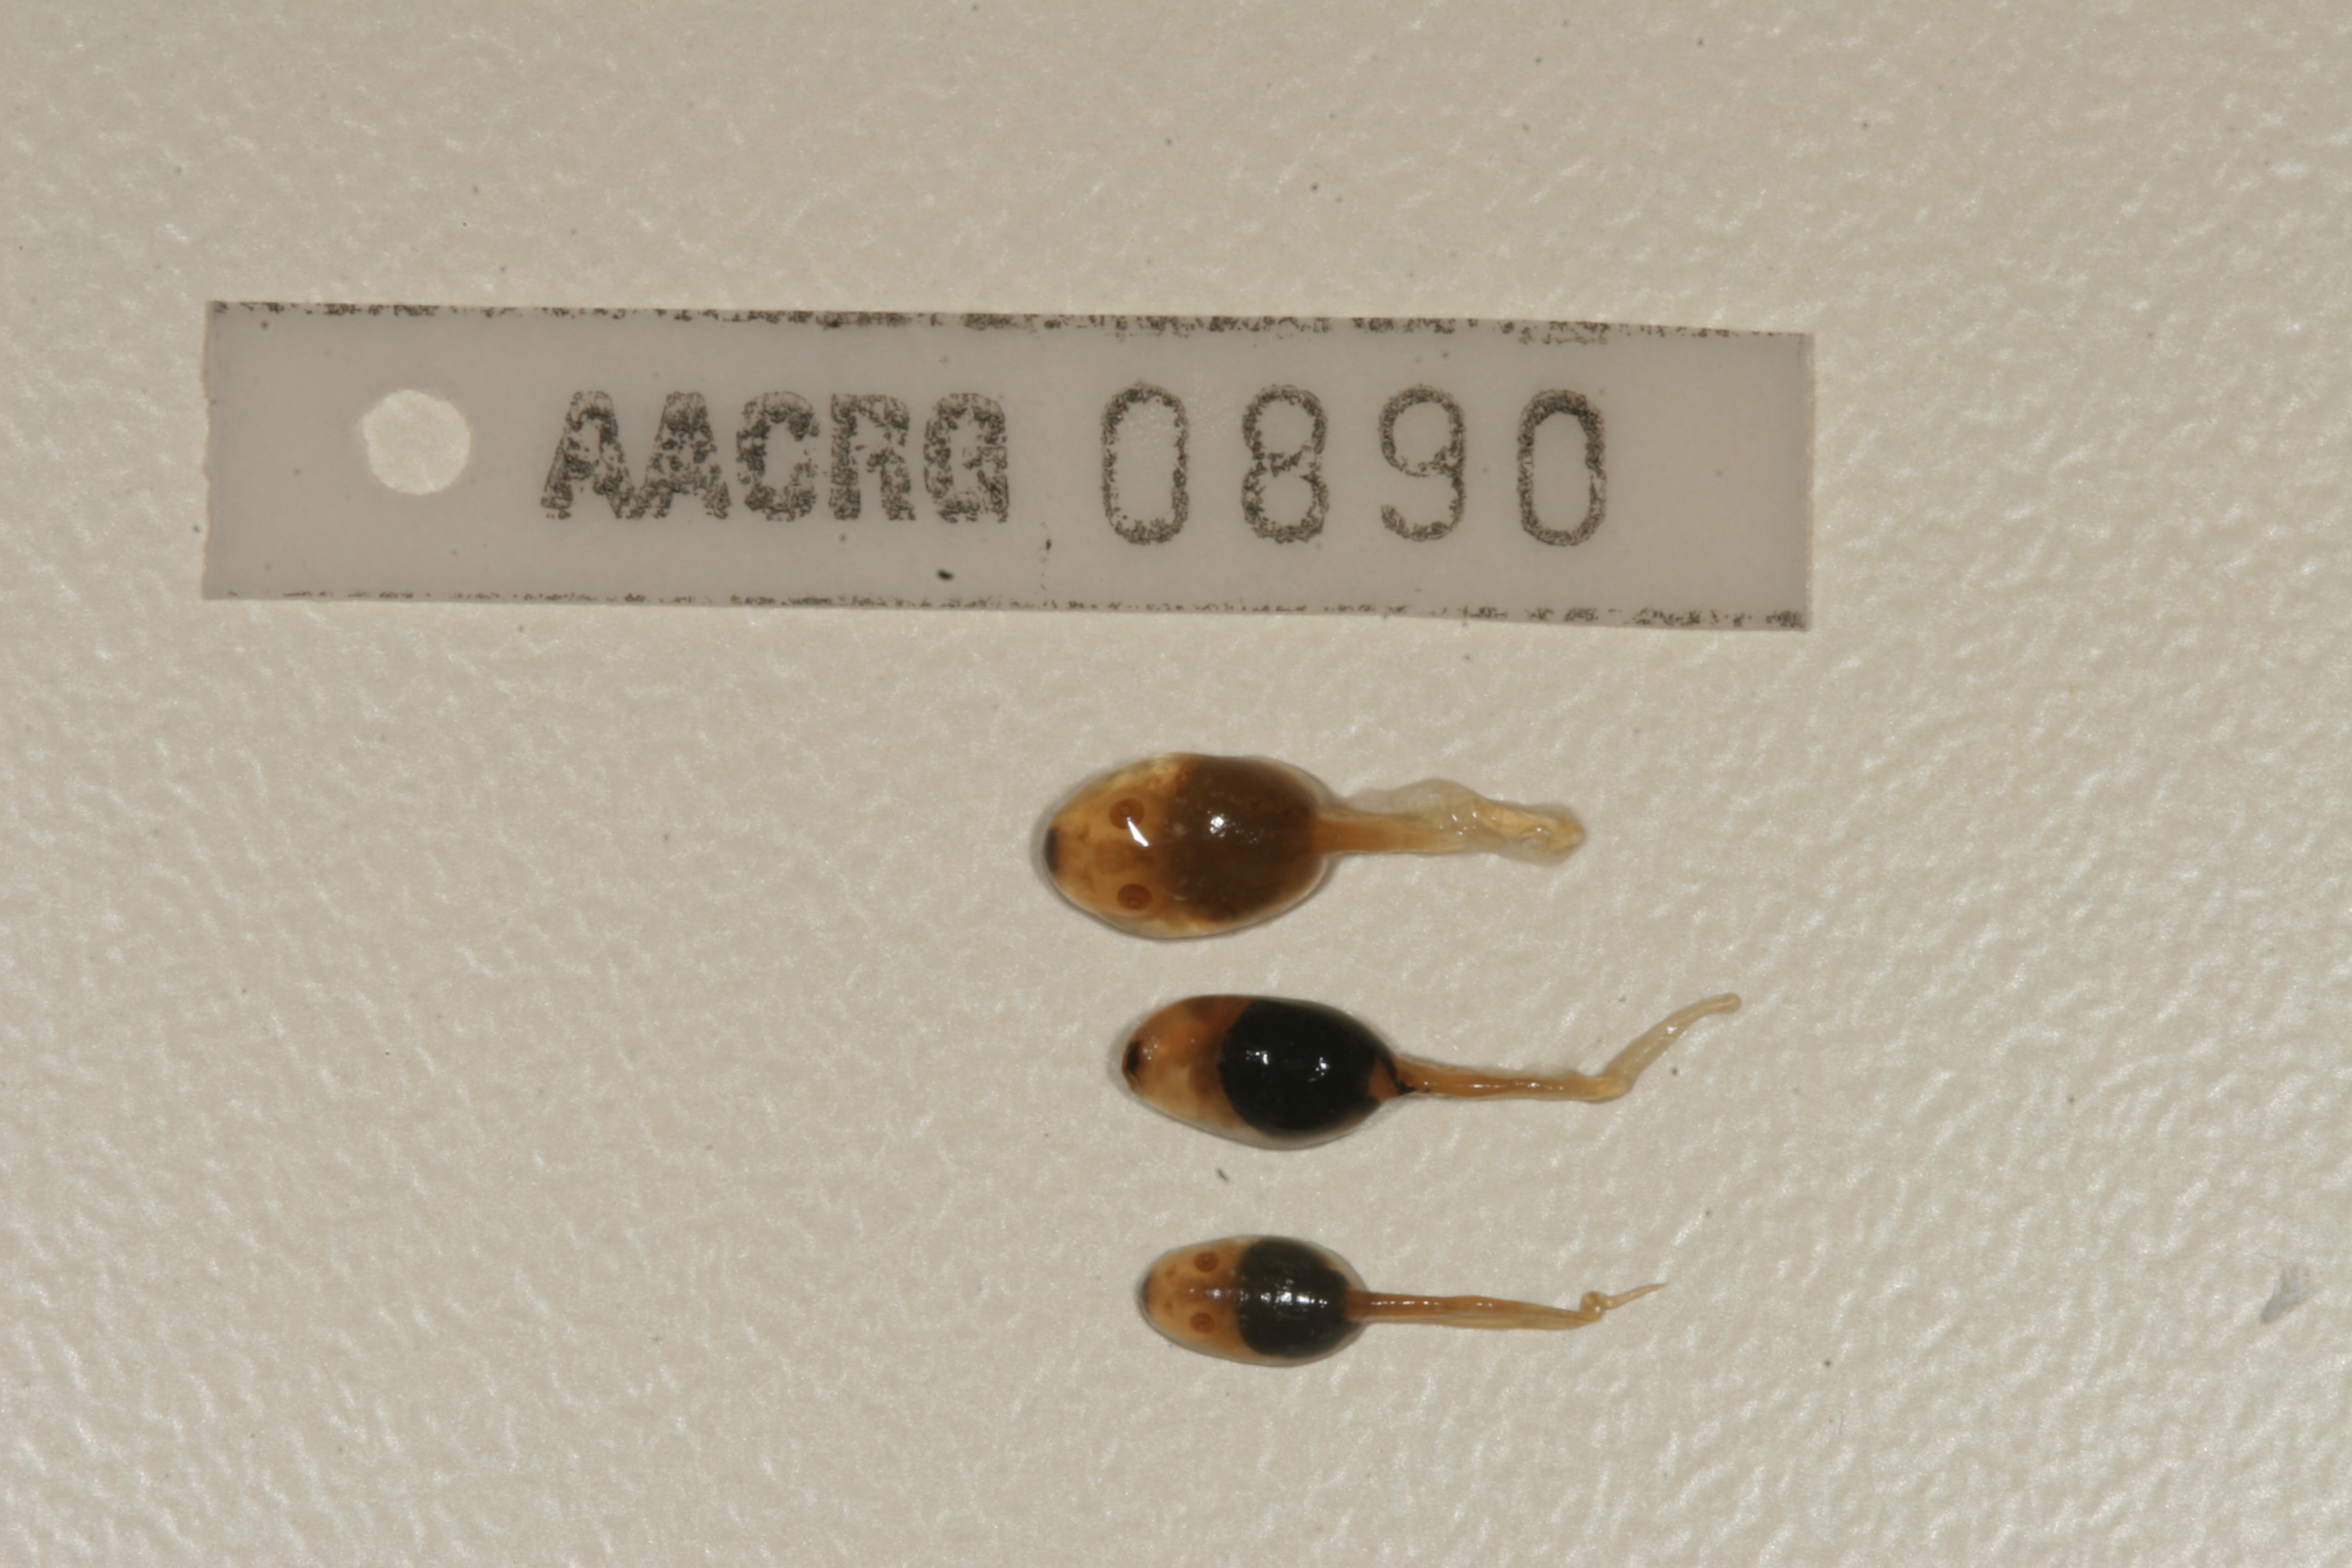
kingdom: Animalia
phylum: Chordata
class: Amphibia
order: Anura
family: Pyxicephalidae
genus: Amietia
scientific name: Amietia fuscigula
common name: Cape rana
